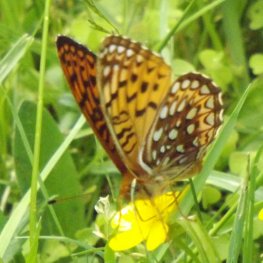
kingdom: Animalia
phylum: Arthropoda
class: Insecta
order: Lepidoptera
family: Nymphalidae
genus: Speyeria
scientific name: Speyeria atlantis
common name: Atlantis Fritillary
